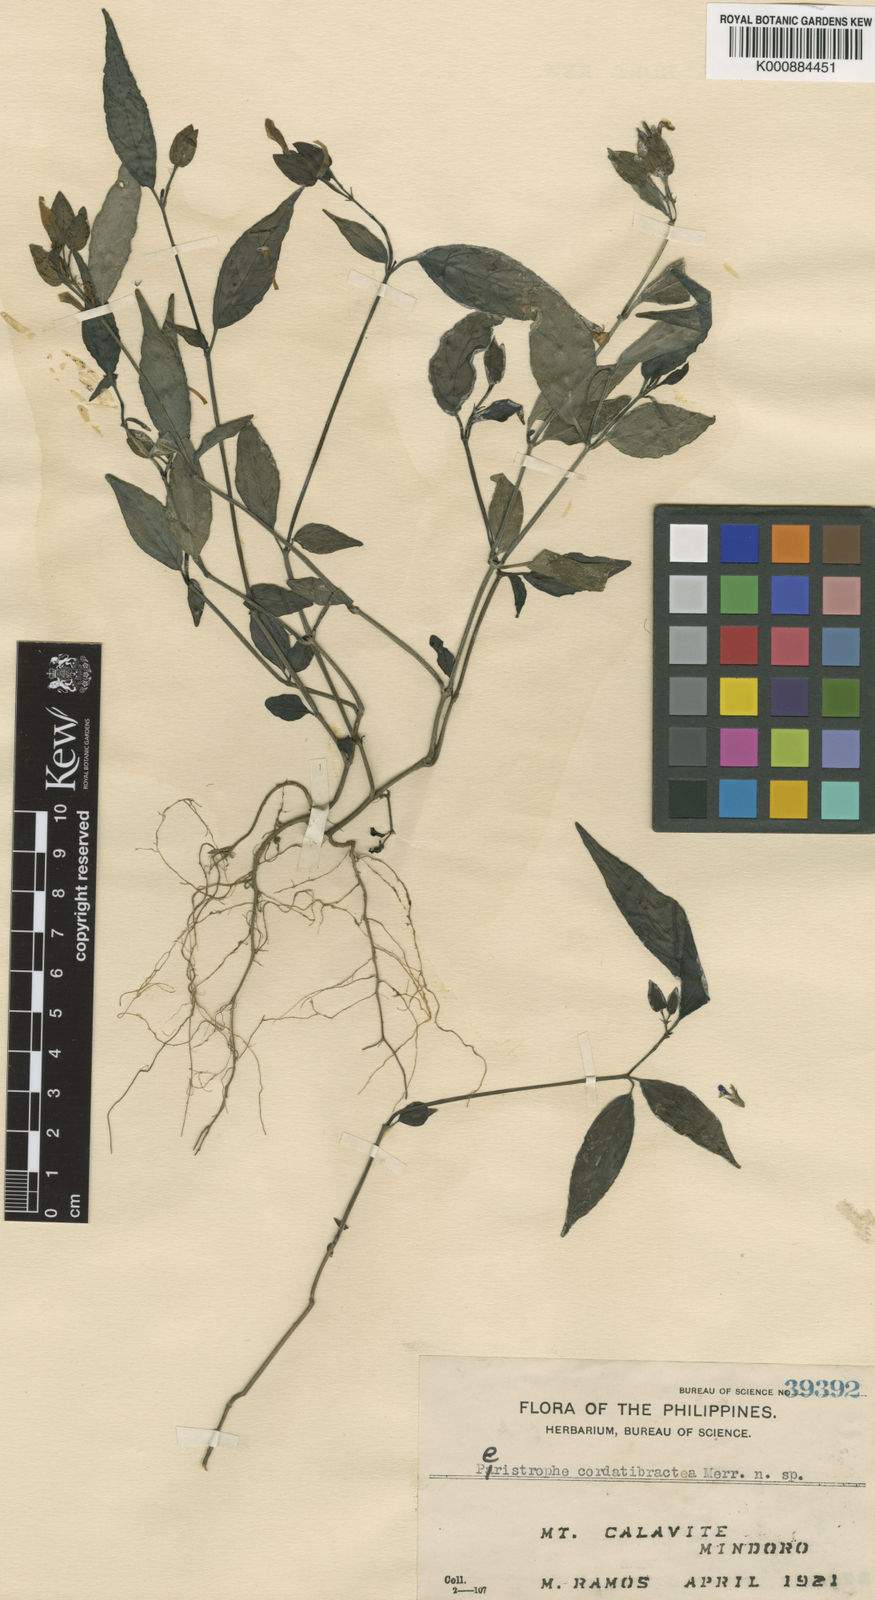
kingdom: Plantae
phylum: Tracheophyta
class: Magnoliopsida
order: Lamiales
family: Acanthaceae
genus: Dicliptera
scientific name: Dicliptera cordibracteata
